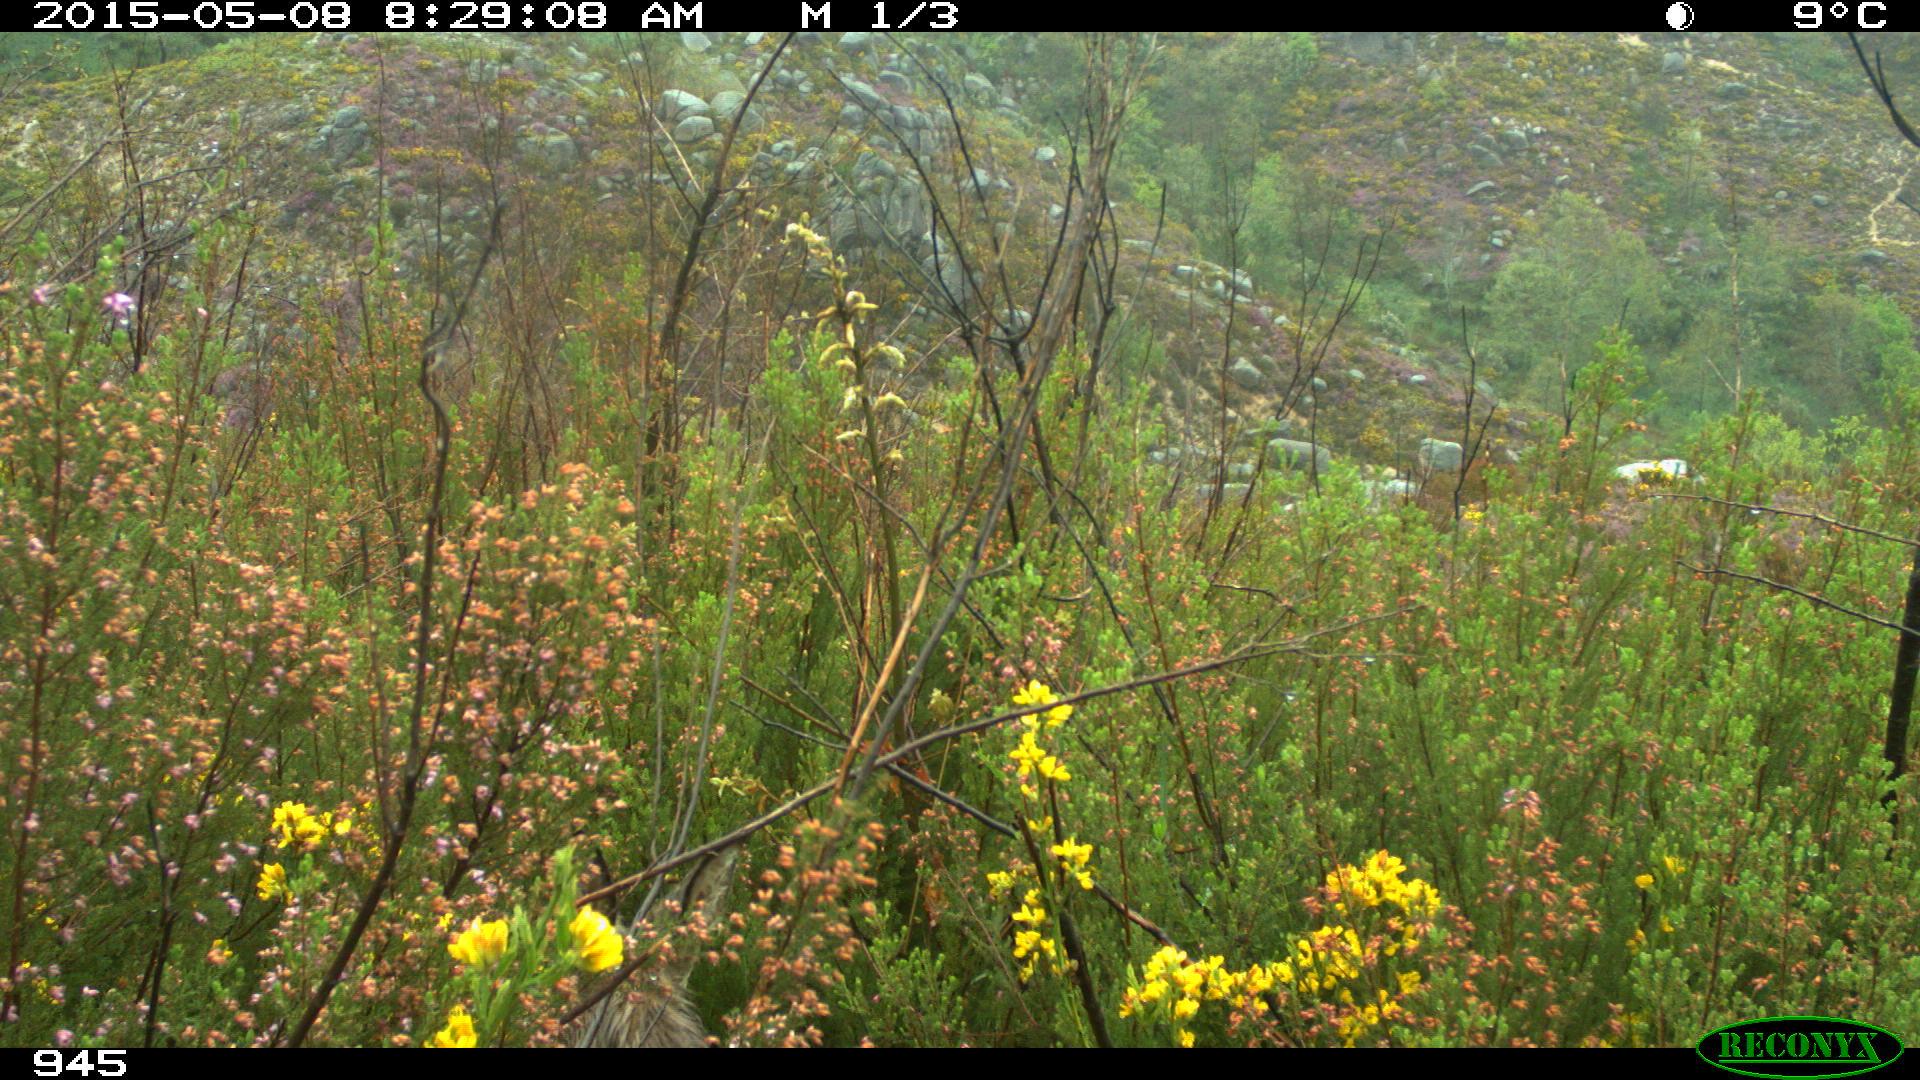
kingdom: Animalia
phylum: Chordata
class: Mammalia
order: Artiodactyla
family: Cervidae
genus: Capreolus
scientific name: Capreolus capreolus
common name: Western roe deer
